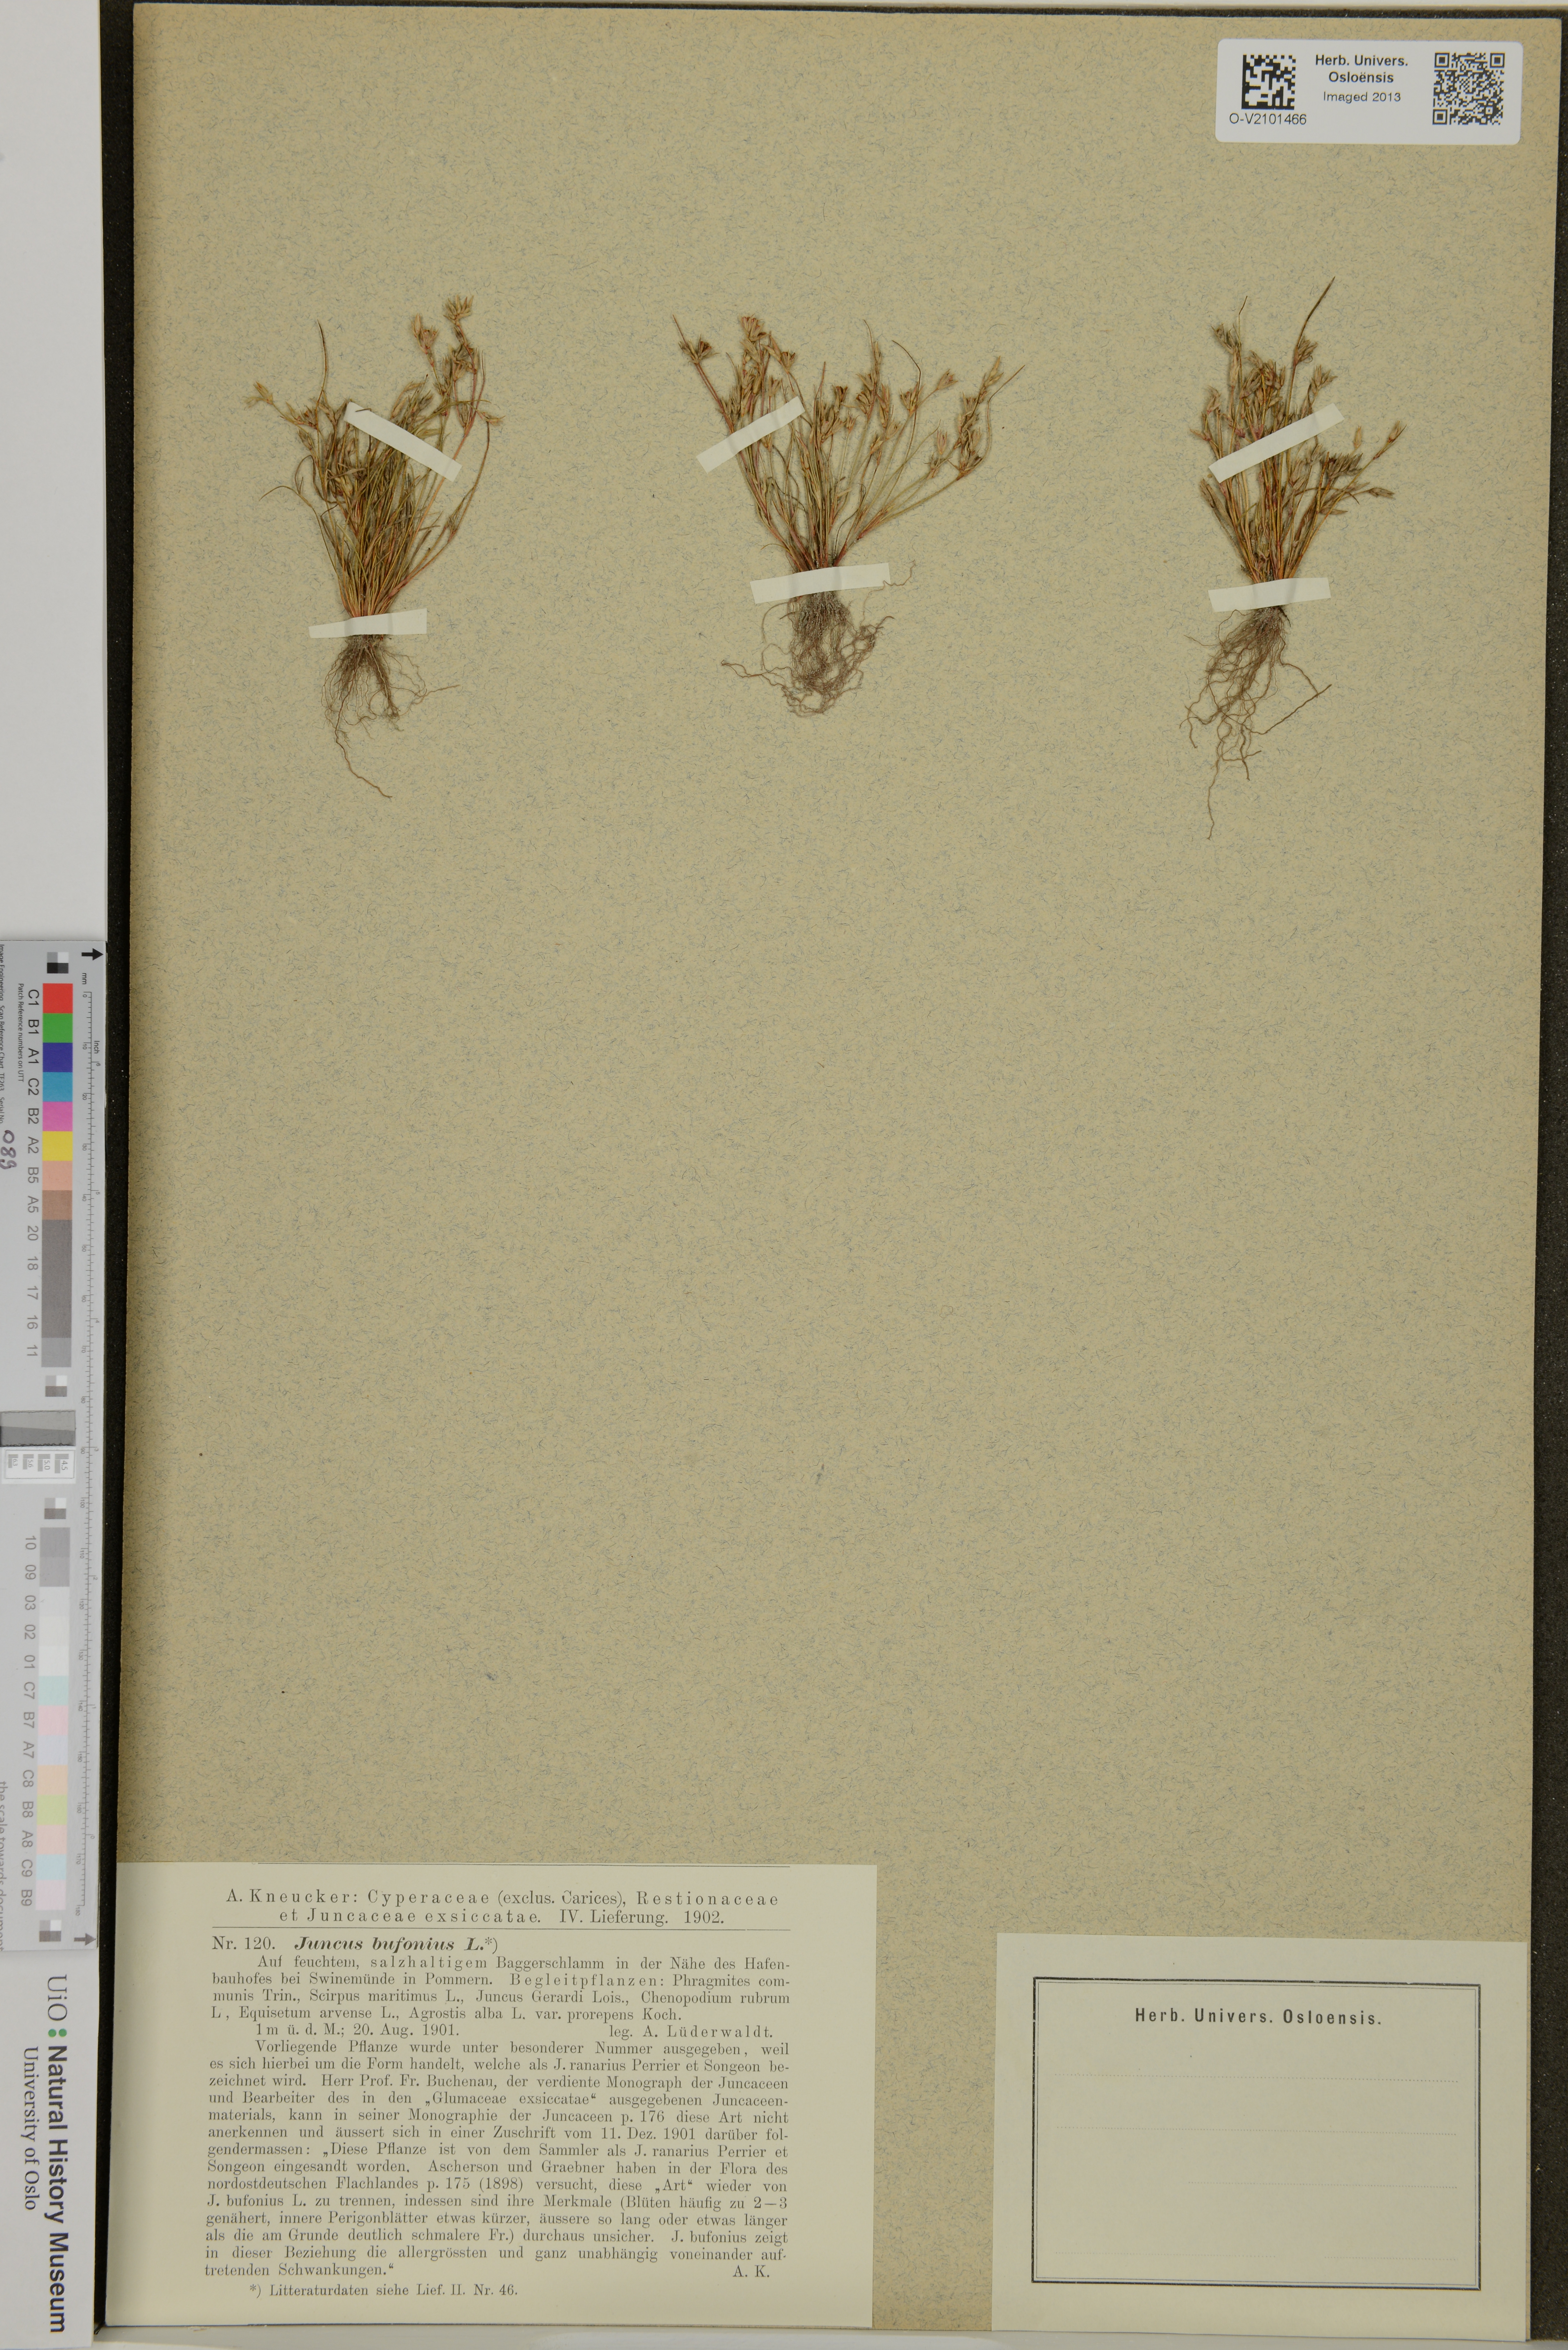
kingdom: Plantae
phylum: Tracheophyta
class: Liliopsida
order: Poales
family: Juncaceae
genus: Juncus
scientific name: Juncus bufonius
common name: Toad rush
